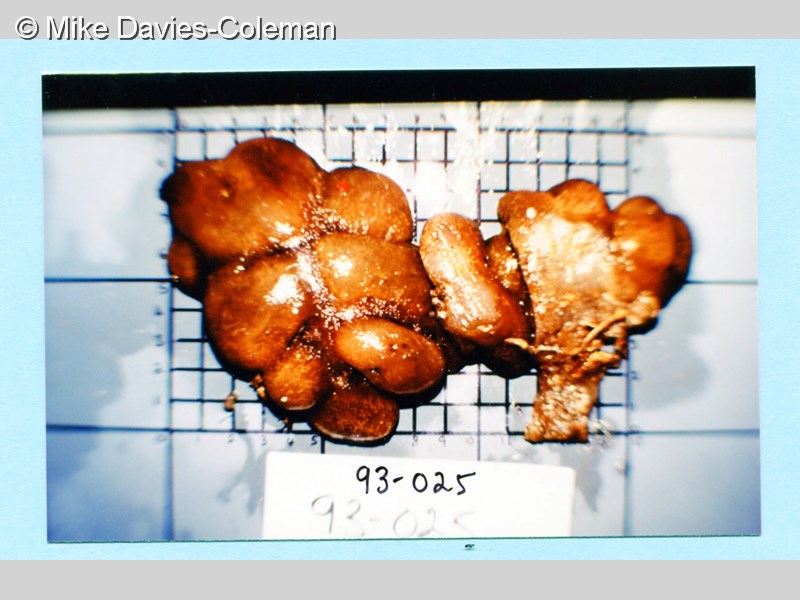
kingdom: Animalia
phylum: Chordata
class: Ascidiacea
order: Aplousobranchia
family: Pseudodistomidae
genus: Pseudodistoma
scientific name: Pseudodistoma
